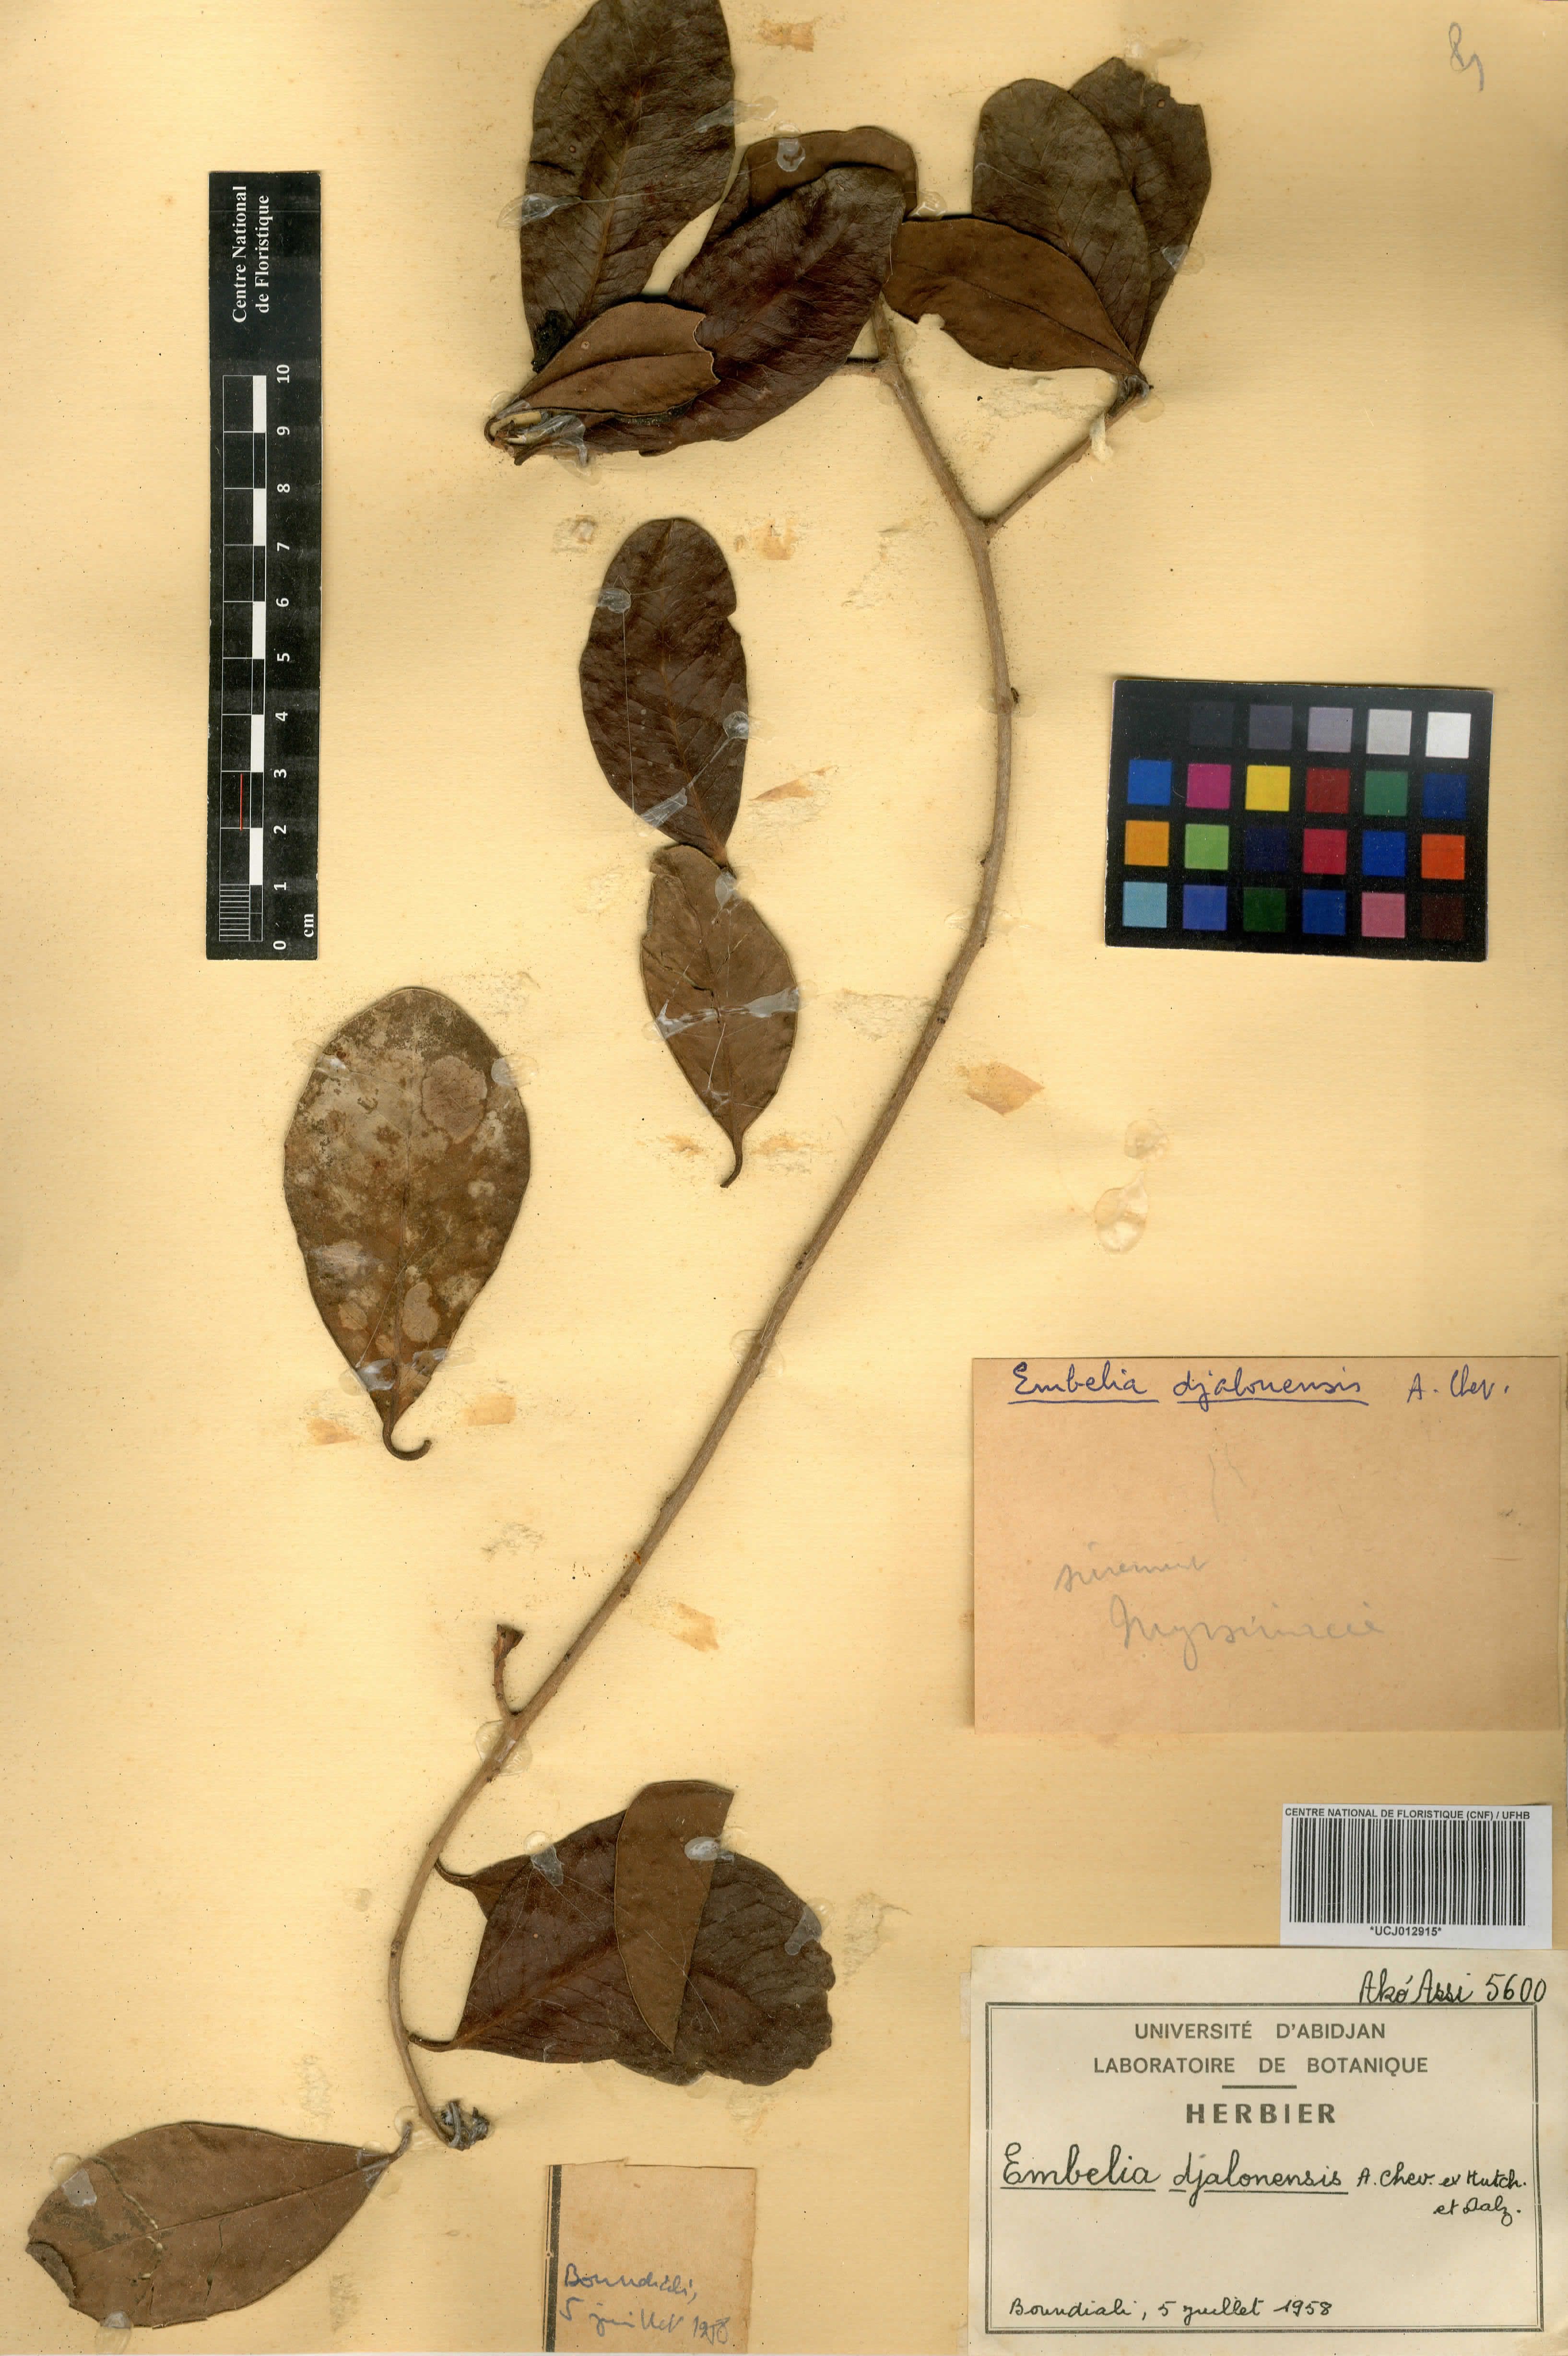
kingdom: Plantae
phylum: Tracheophyta
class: Magnoliopsida
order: Ericales
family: Primulaceae
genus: Embelia
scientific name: Embelia djalonensis
